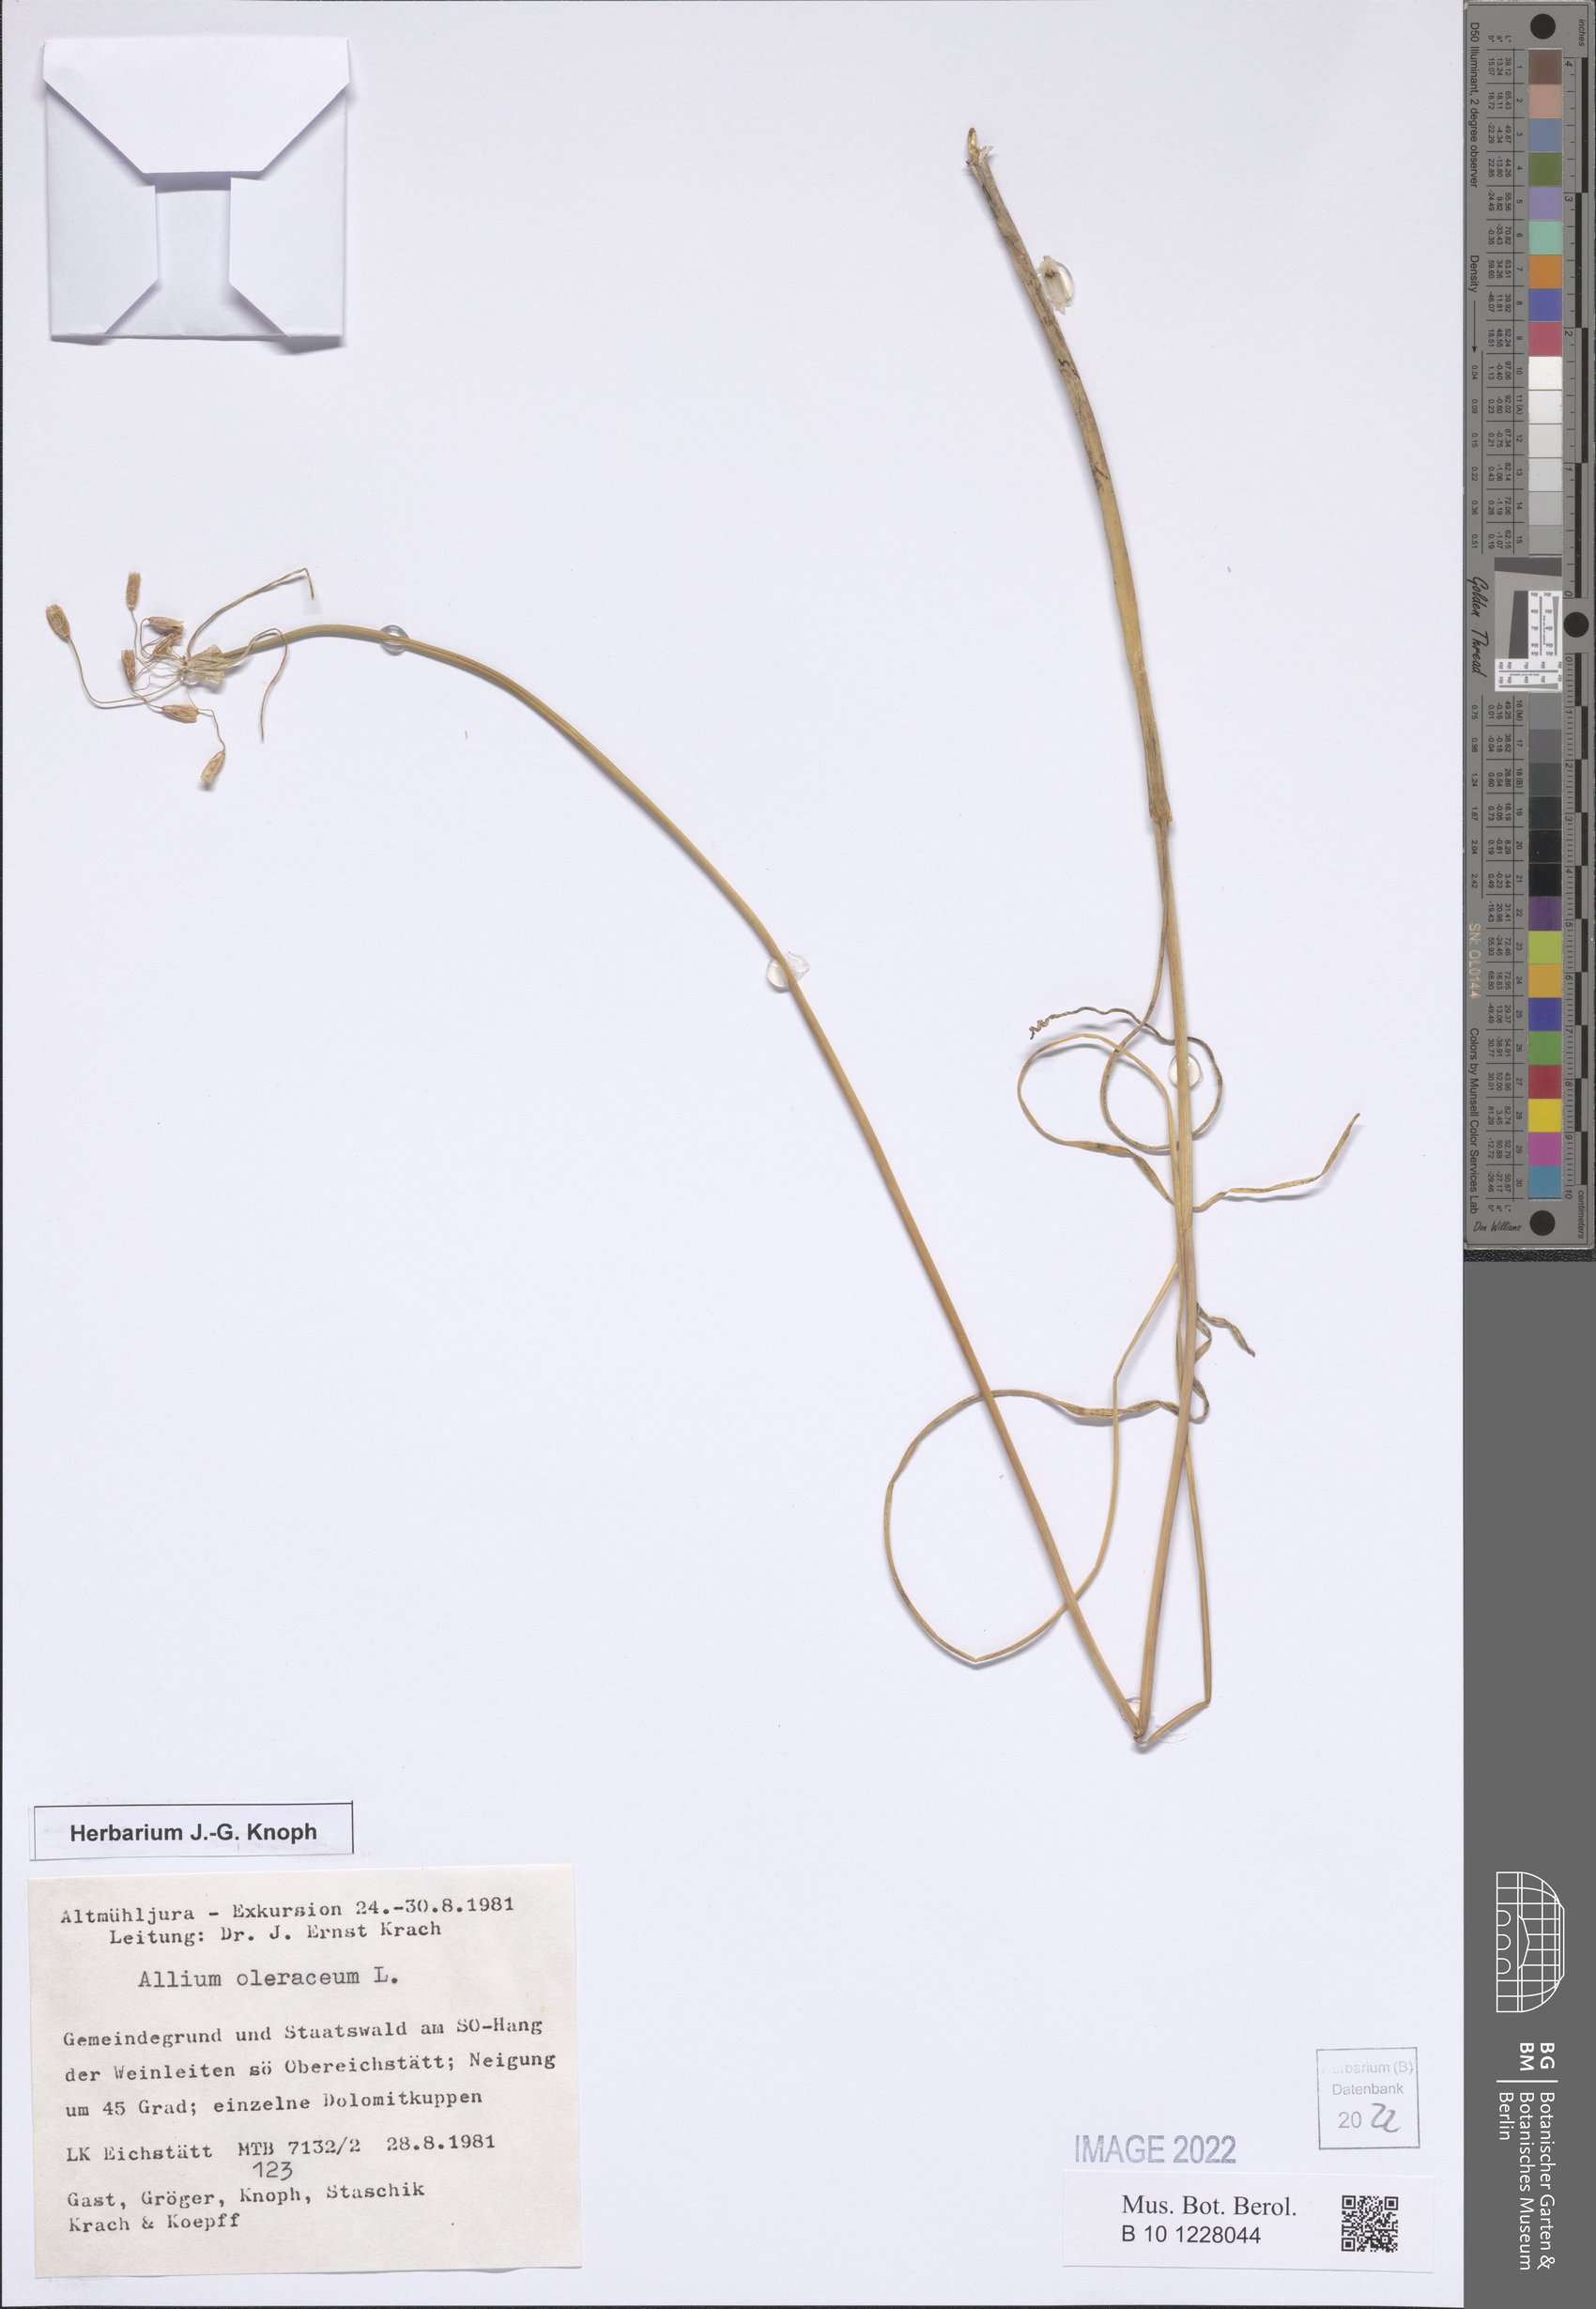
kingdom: Plantae
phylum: Tracheophyta
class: Liliopsida
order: Asparagales
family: Amaryllidaceae
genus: Allium
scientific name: Allium oleraceum
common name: Field garlic
